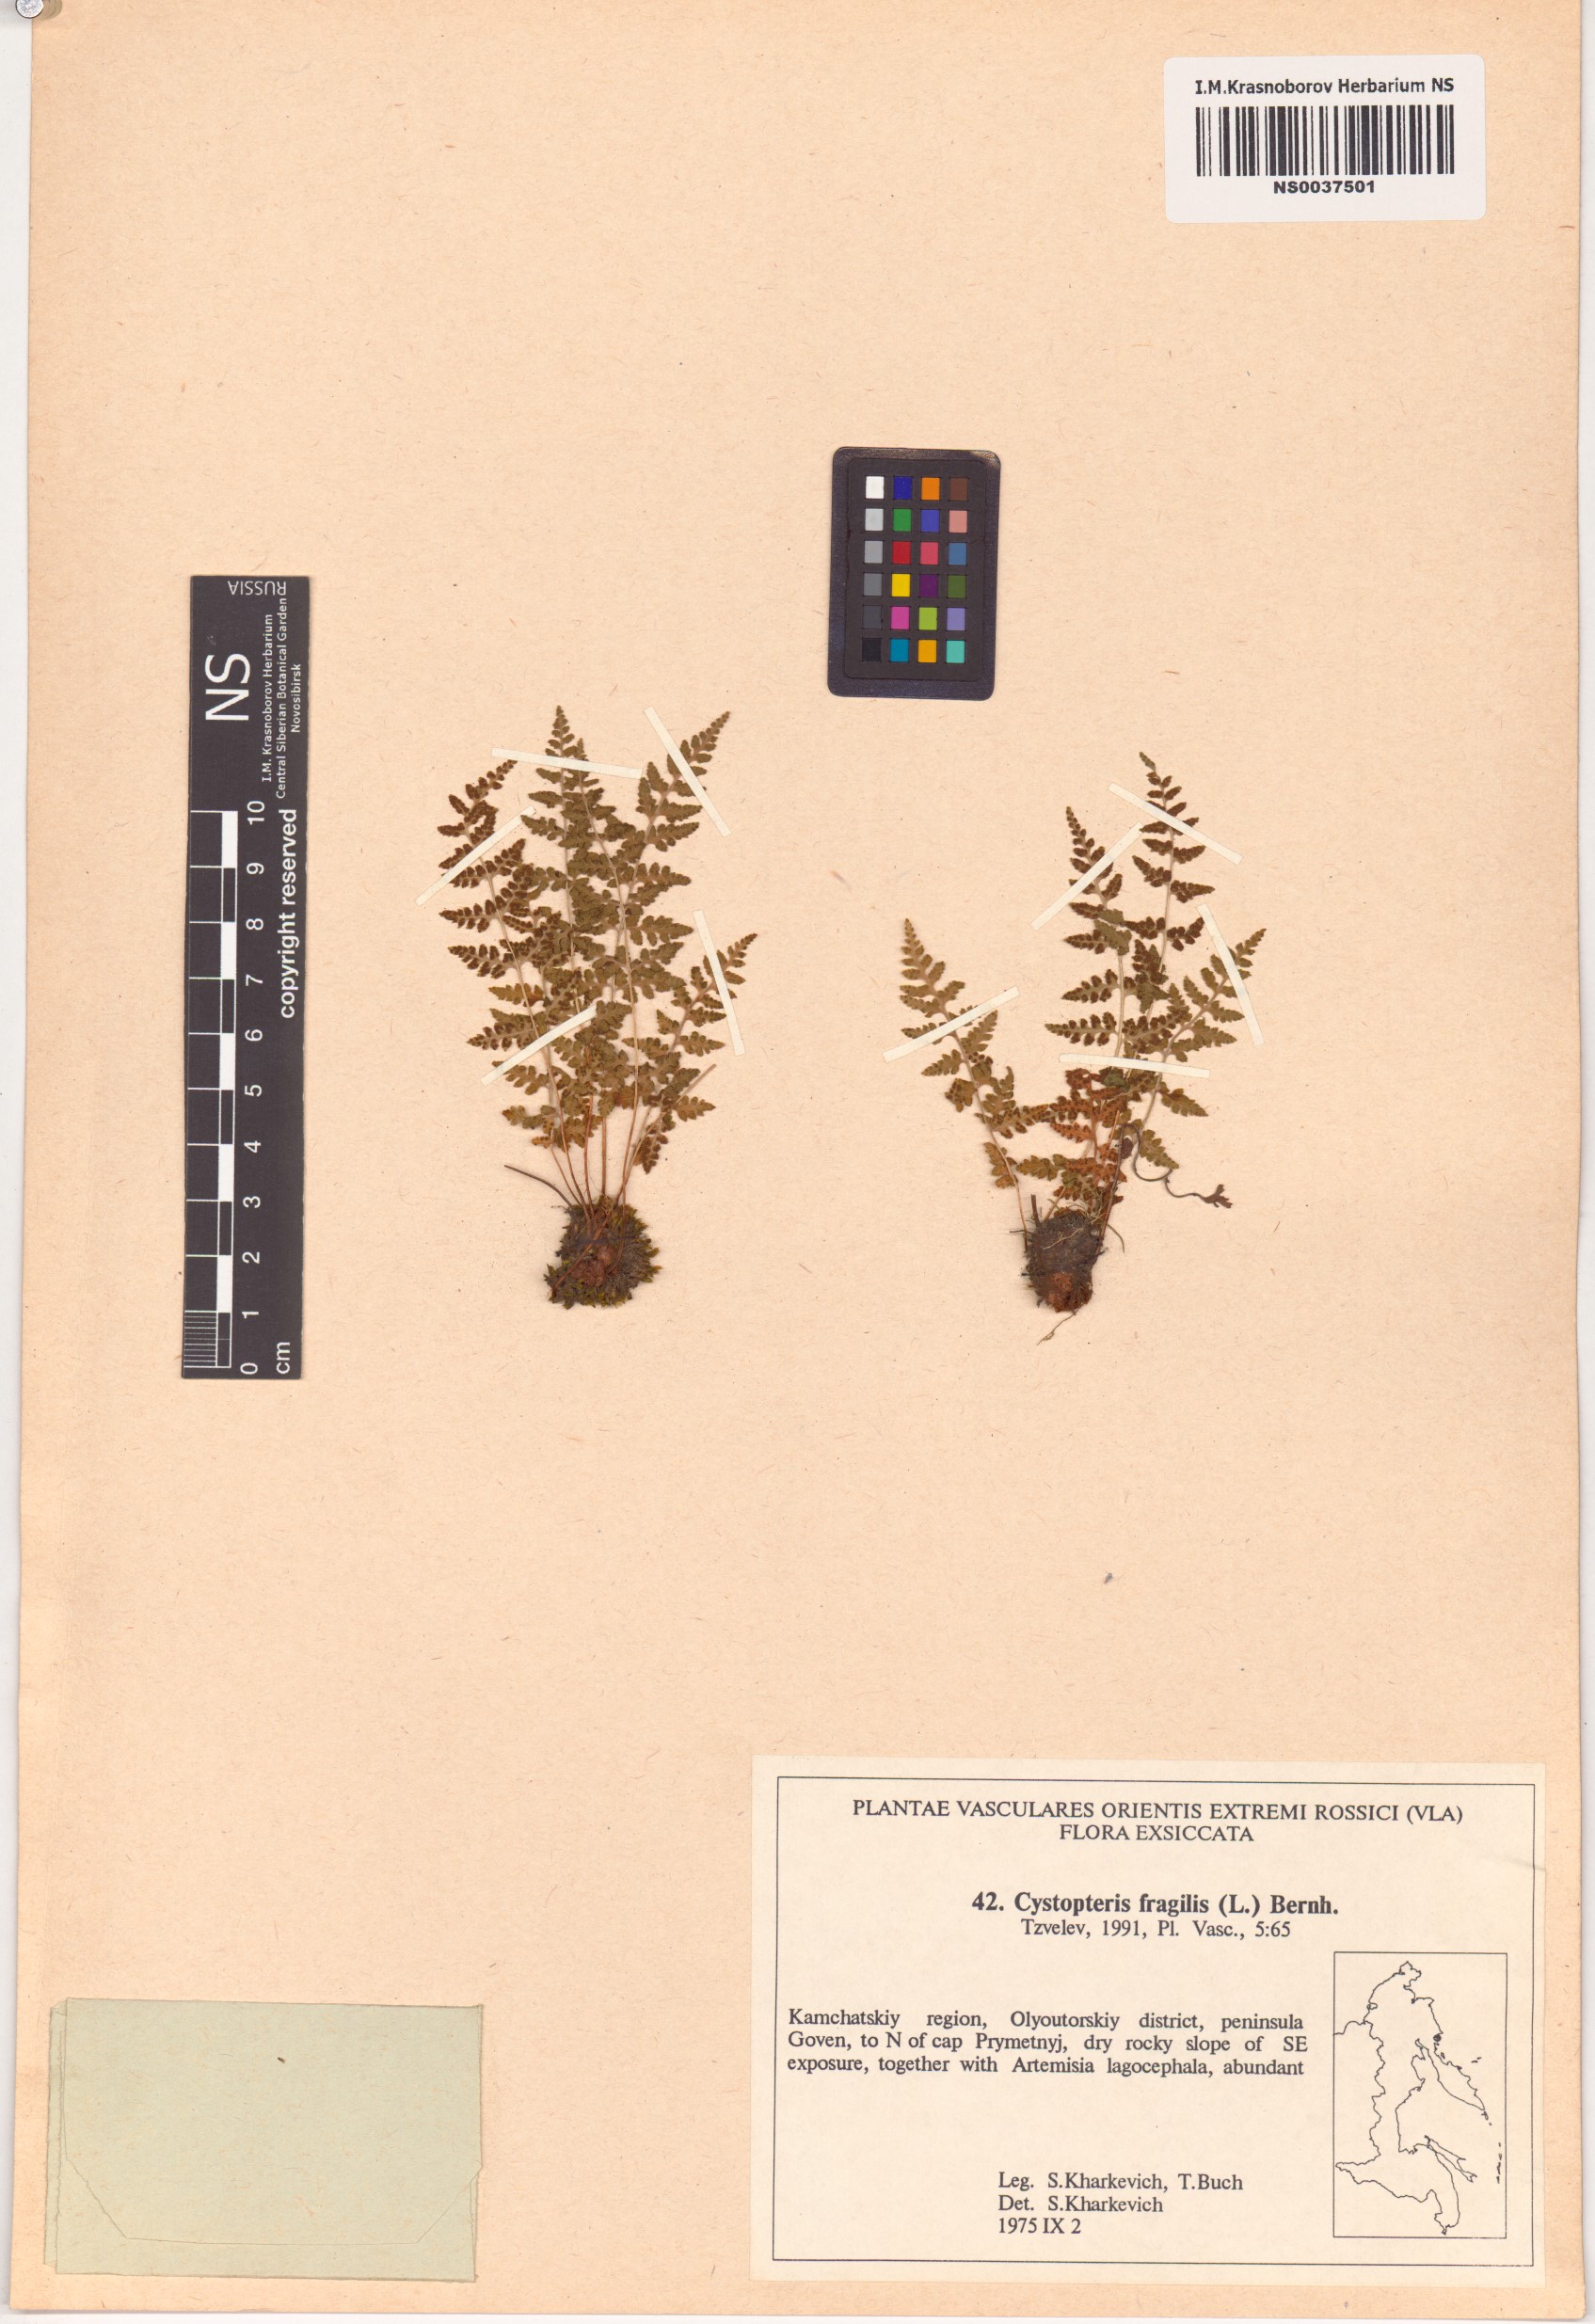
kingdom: Plantae
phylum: Tracheophyta
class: Polypodiopsida
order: Polypodiales
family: Cystopteridaceae
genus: Cystopteris
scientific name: Cystopteris fragilis
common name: Brittle bladder fern
